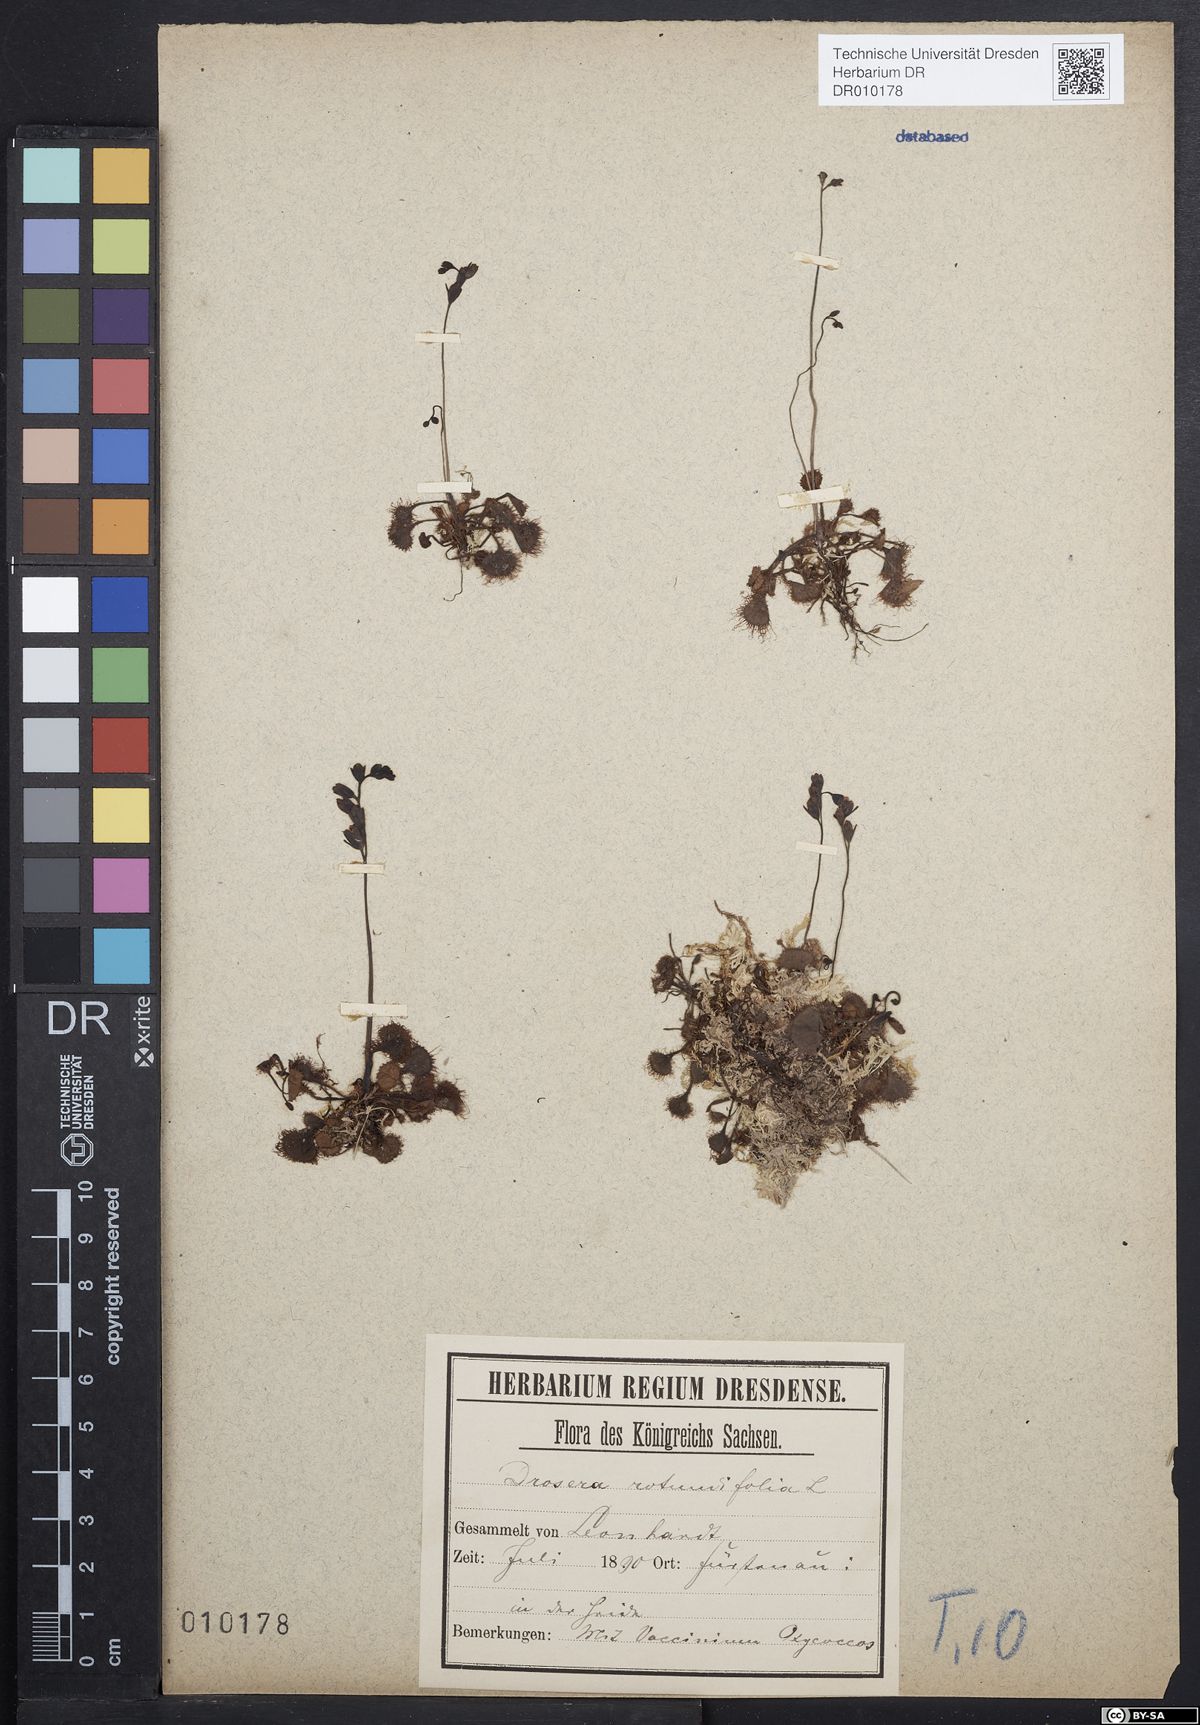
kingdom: Plantae
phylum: Tracheophyta
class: Magnoliopsida
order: Caryophyllales
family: Droseraceae
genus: Drosera
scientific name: Drosera rotundifolia
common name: Round-leaved sundew
